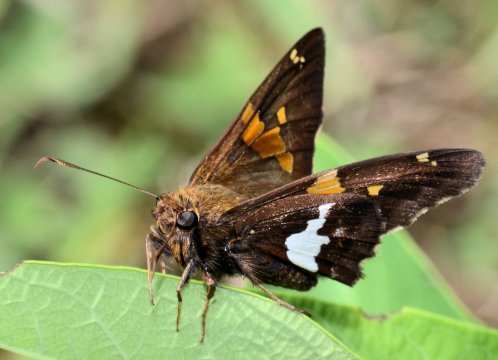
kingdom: Animalia
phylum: Arthropoda
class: Insecta
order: Lepidoptera
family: Hesperiidae
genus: Epargyreus
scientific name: Epargyreus clarus
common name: Silver-spotted Skipper
